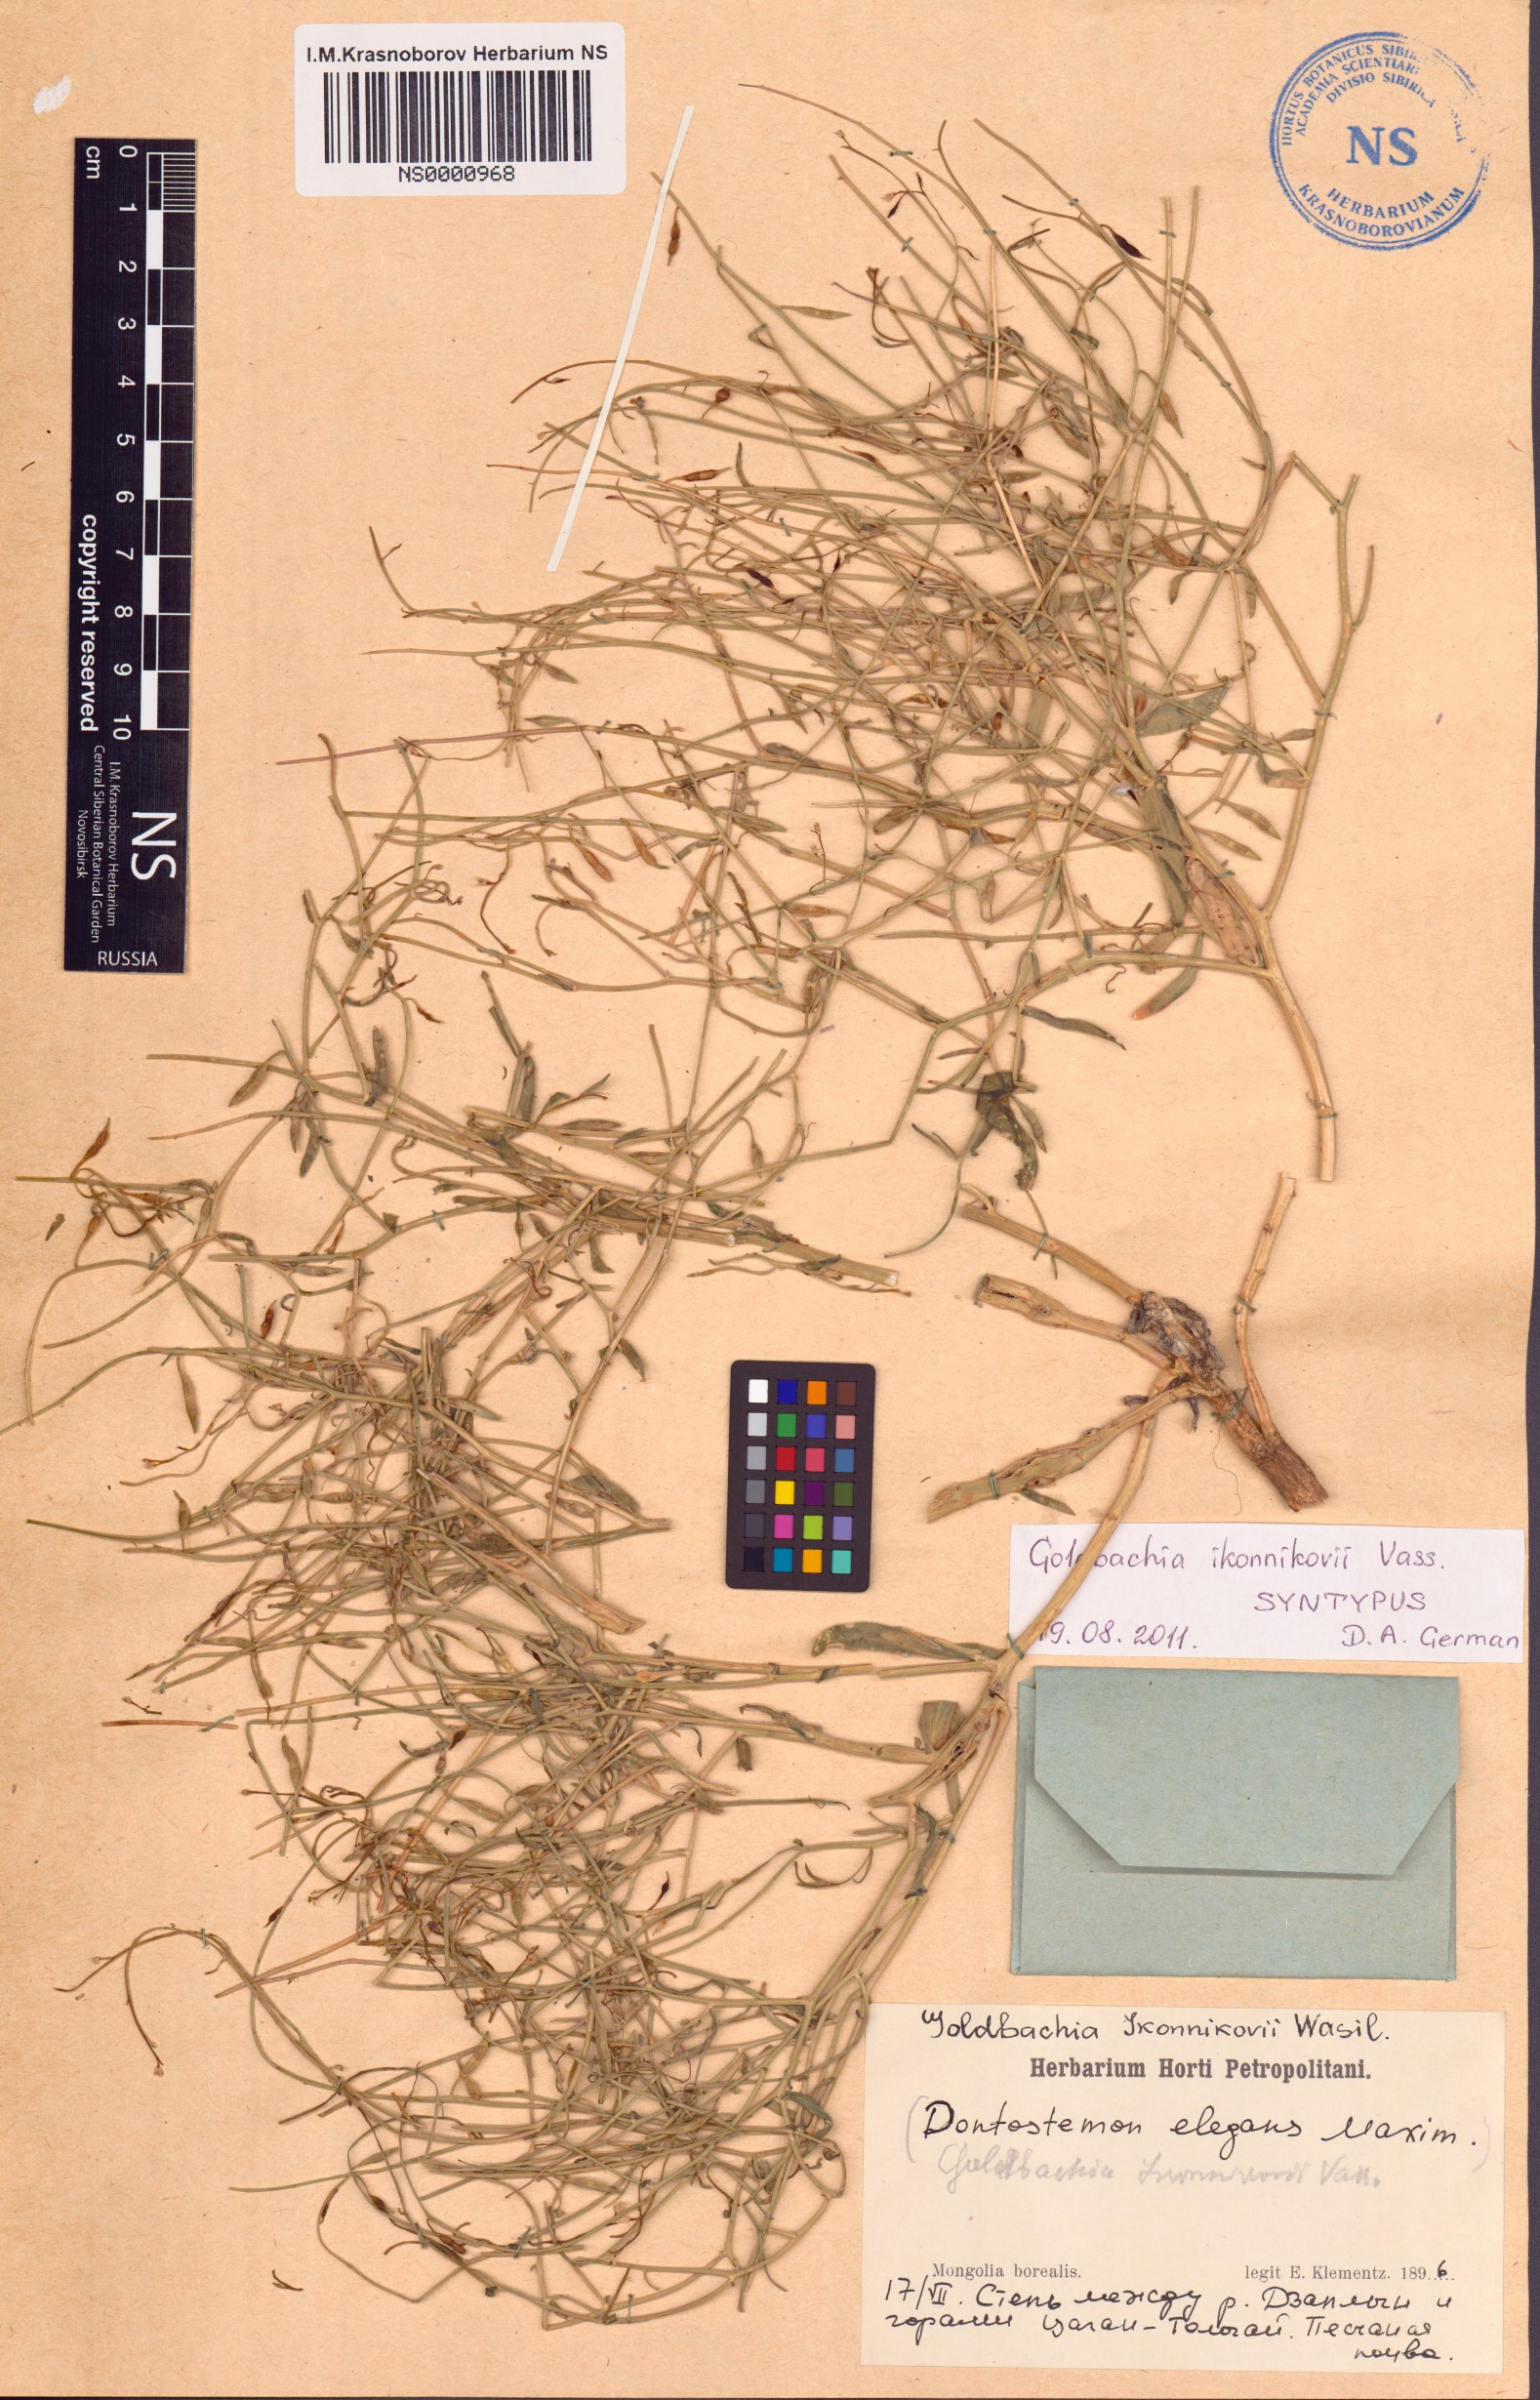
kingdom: Plantae
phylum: Tracheophyta
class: Magnoliopsida
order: Brassicales
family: Brassicaceae
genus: Goldbachia
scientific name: Goldbachia ikonnikovii
